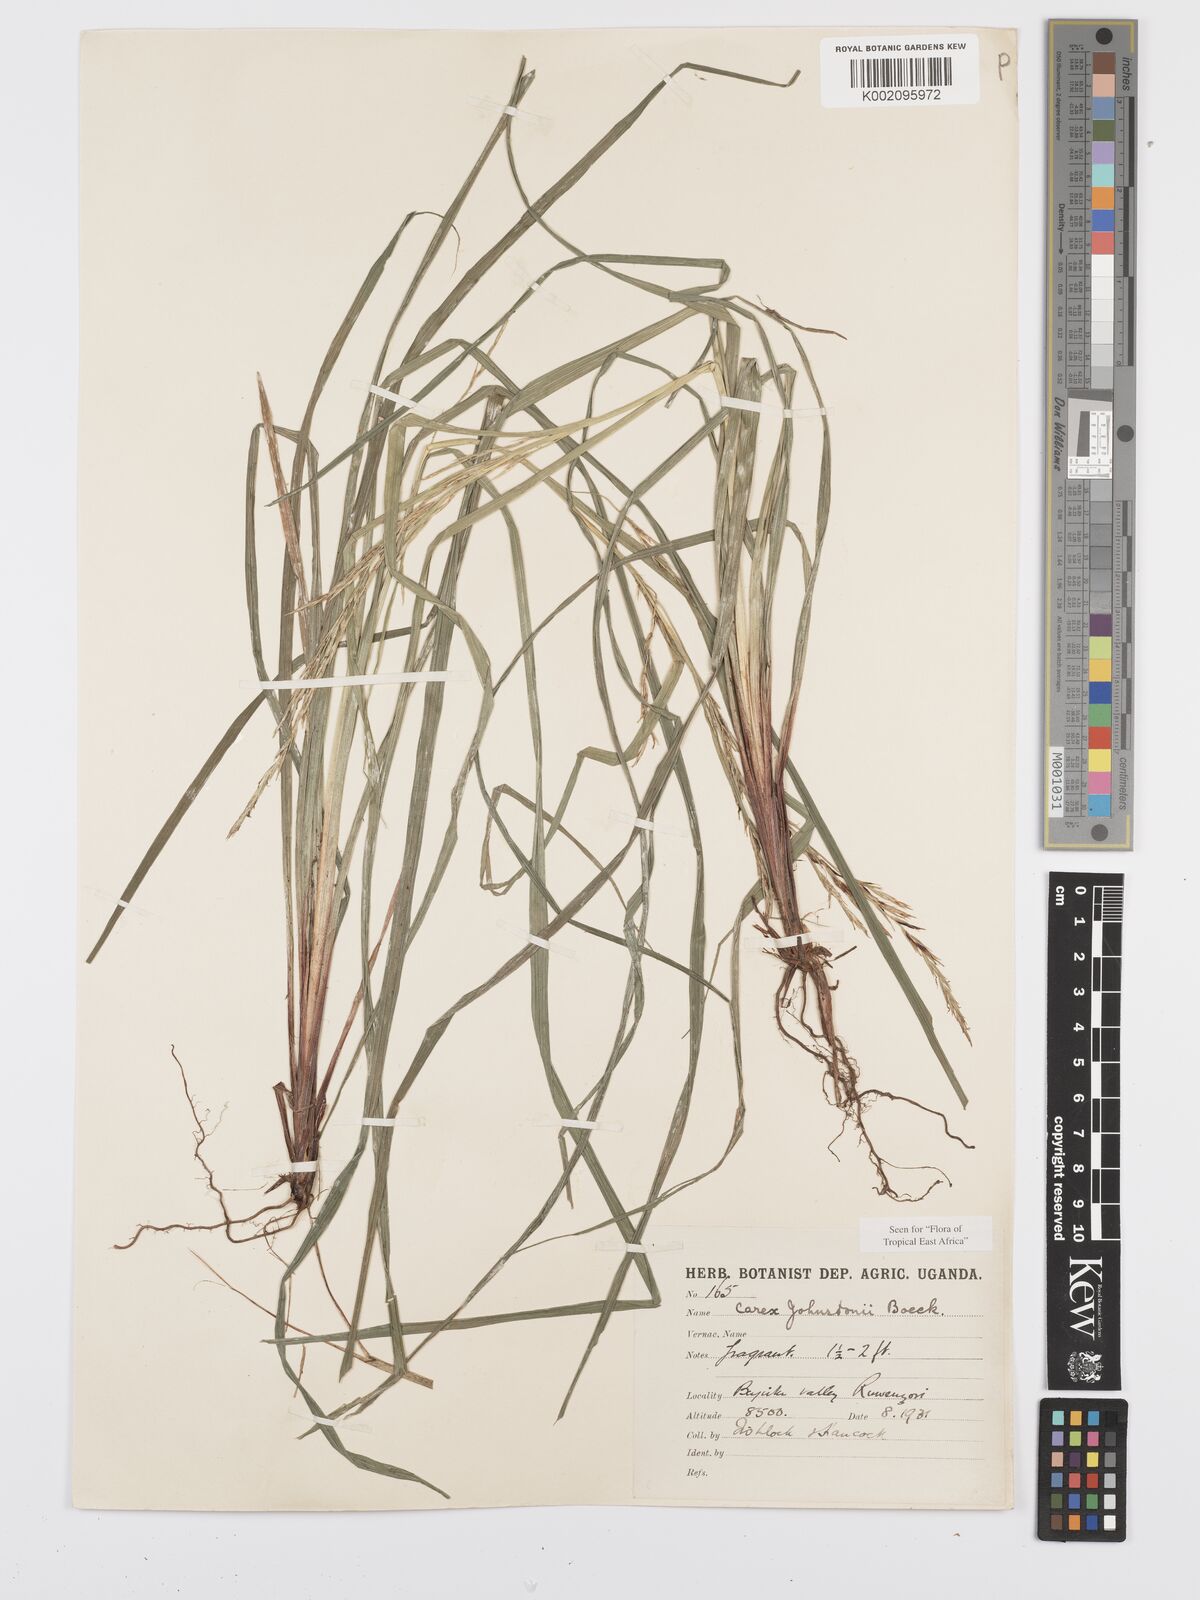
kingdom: Plantae
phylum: Tracheophyta
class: Liliopsida
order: Poales
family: Cyperaceae
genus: Carex
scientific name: Carex johnstonii
